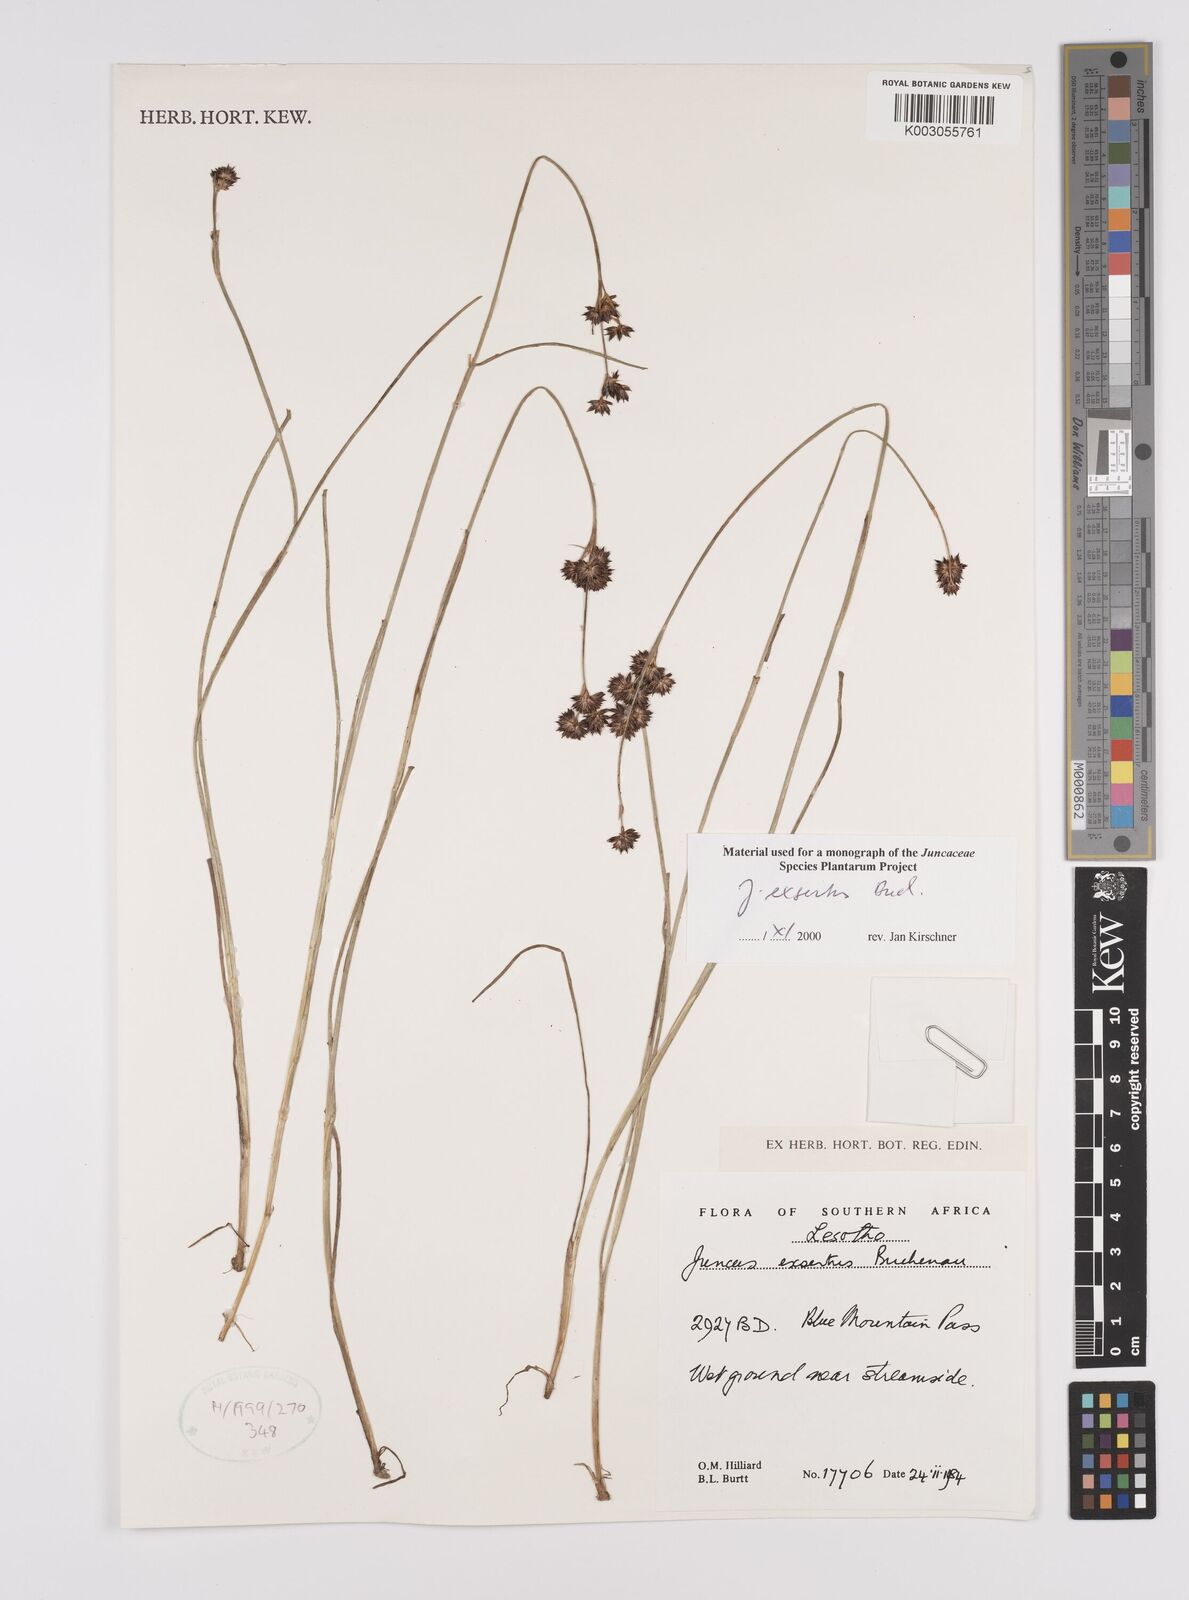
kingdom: Plantae
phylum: Tracheophyta
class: Liliopsida
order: Poales
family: Juncaceae
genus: Juncus
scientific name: Juncus exsertus
